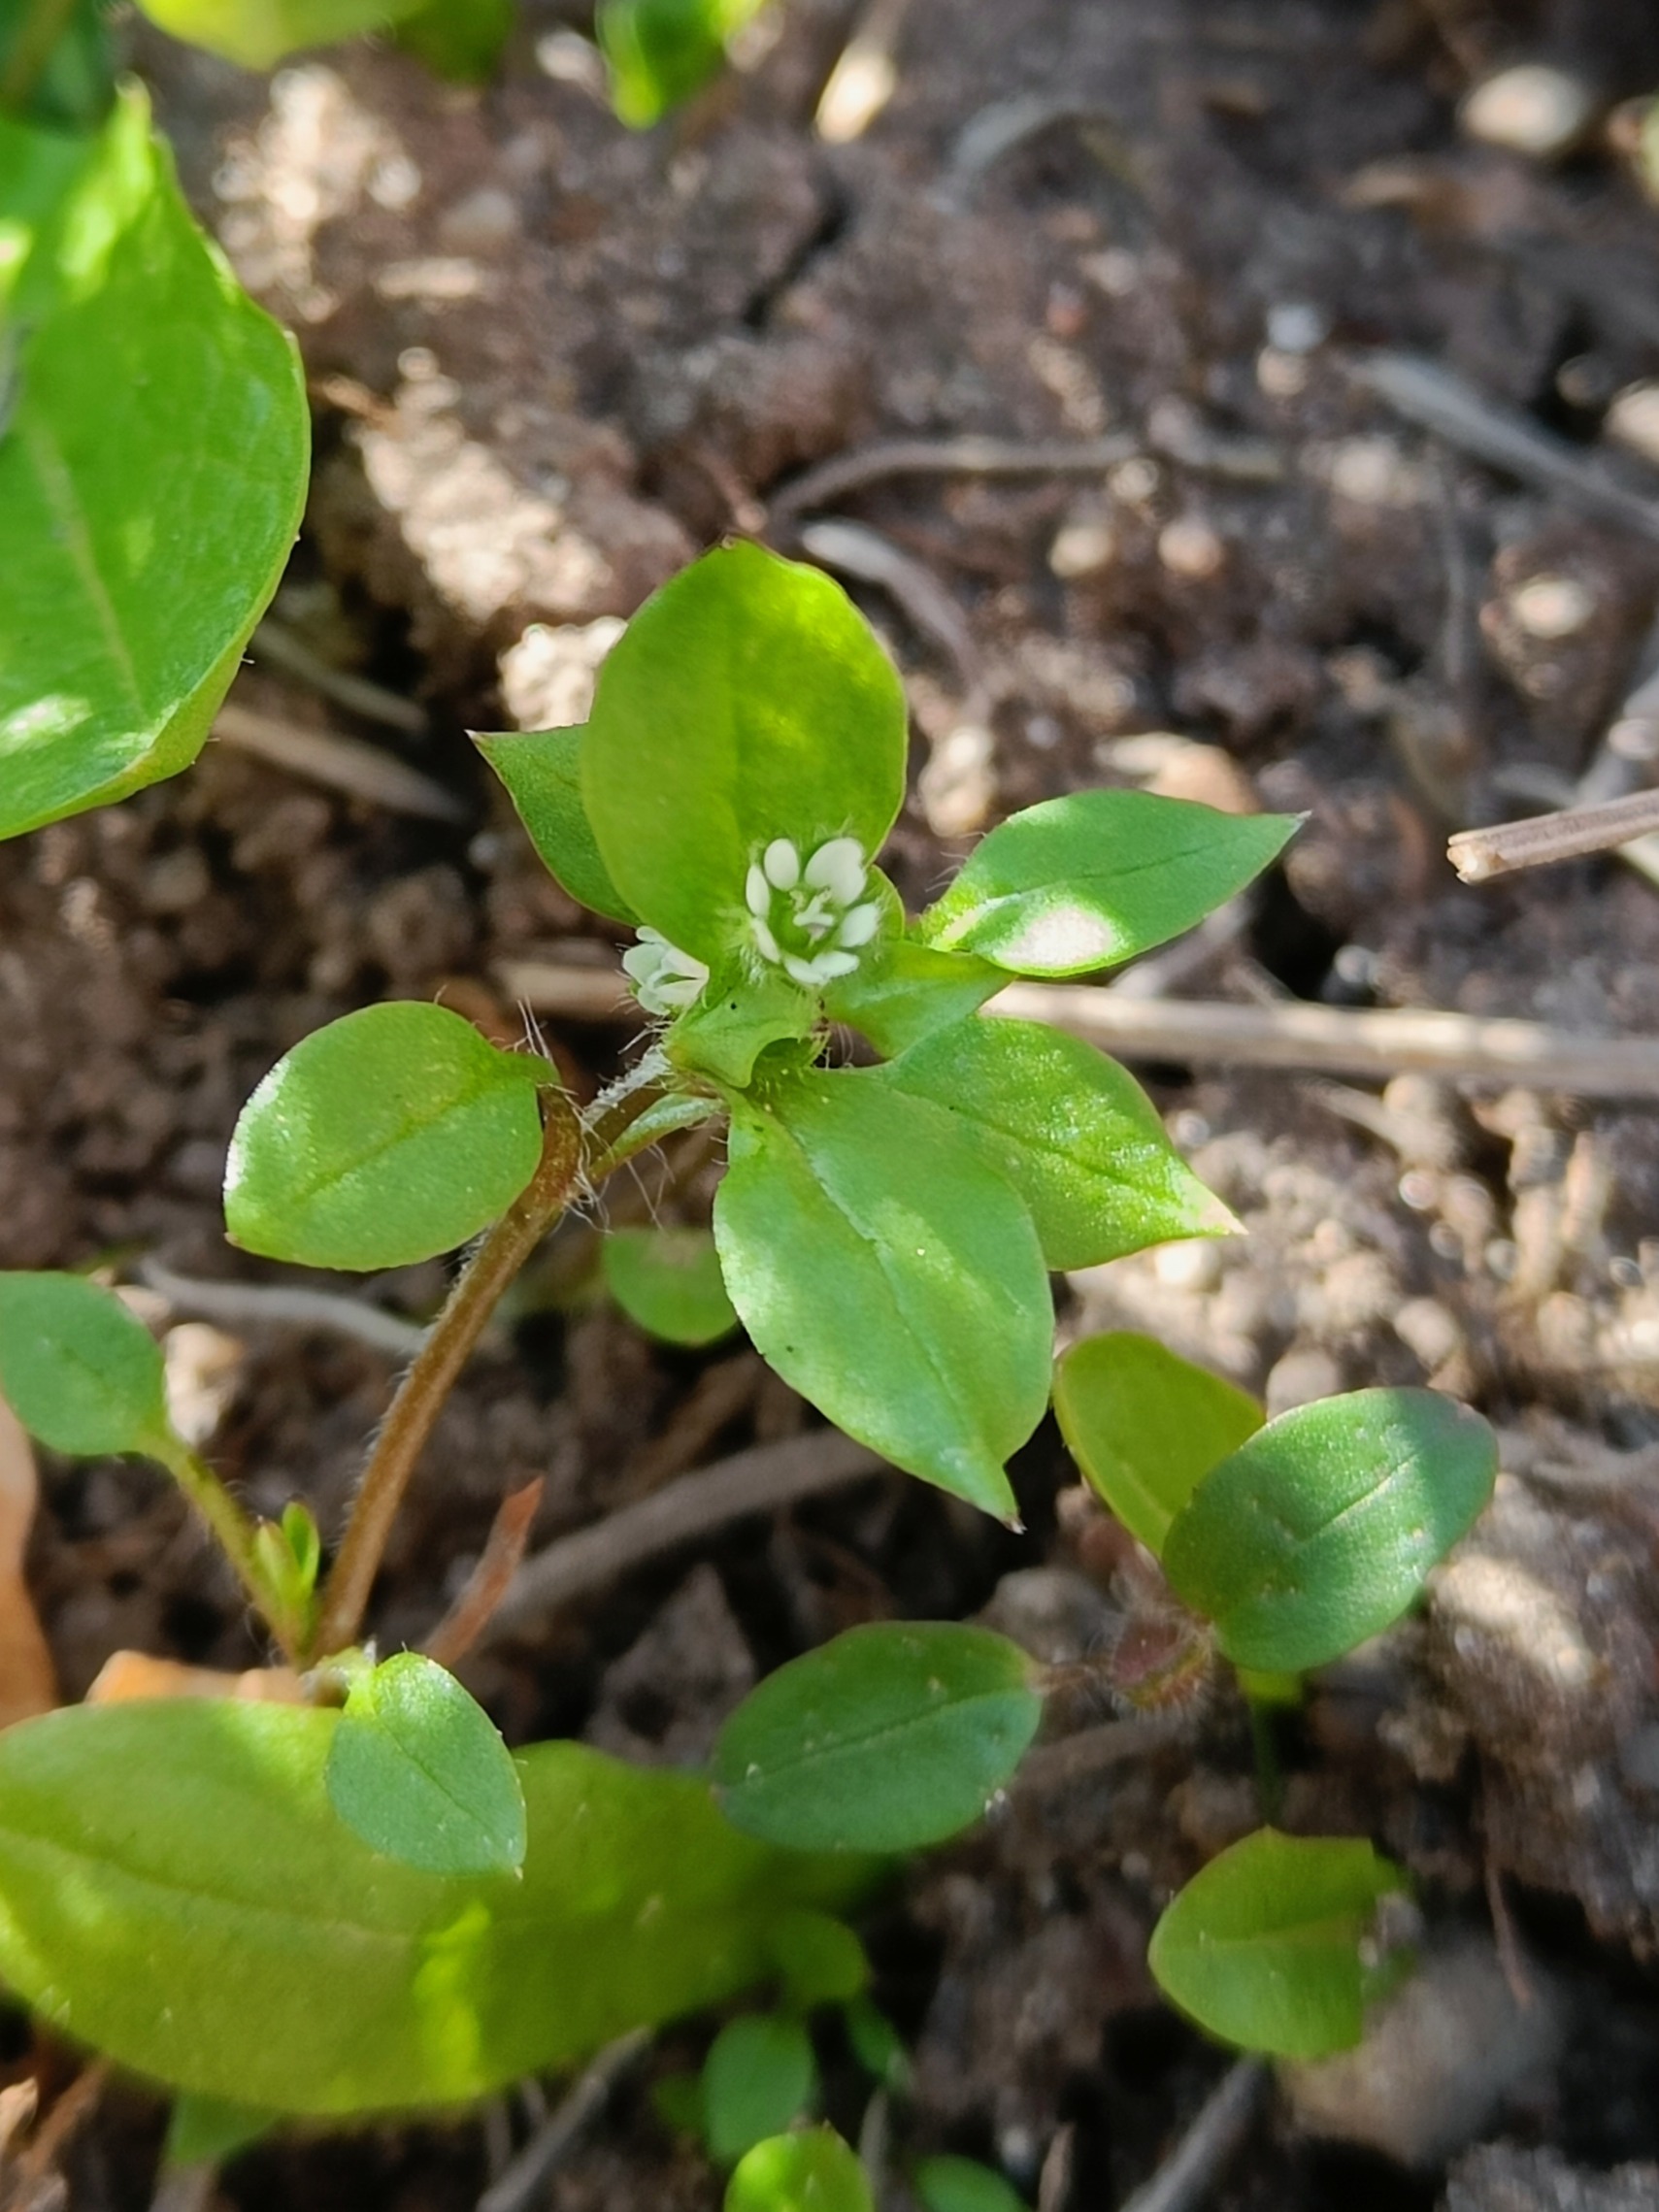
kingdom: Plantae
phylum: Tracheophyta
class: Magnoliopsida
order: Caryophyllales
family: Caryophyllaceae
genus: Stellaria
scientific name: Stellaria media
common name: Almindelig fuglegræs
